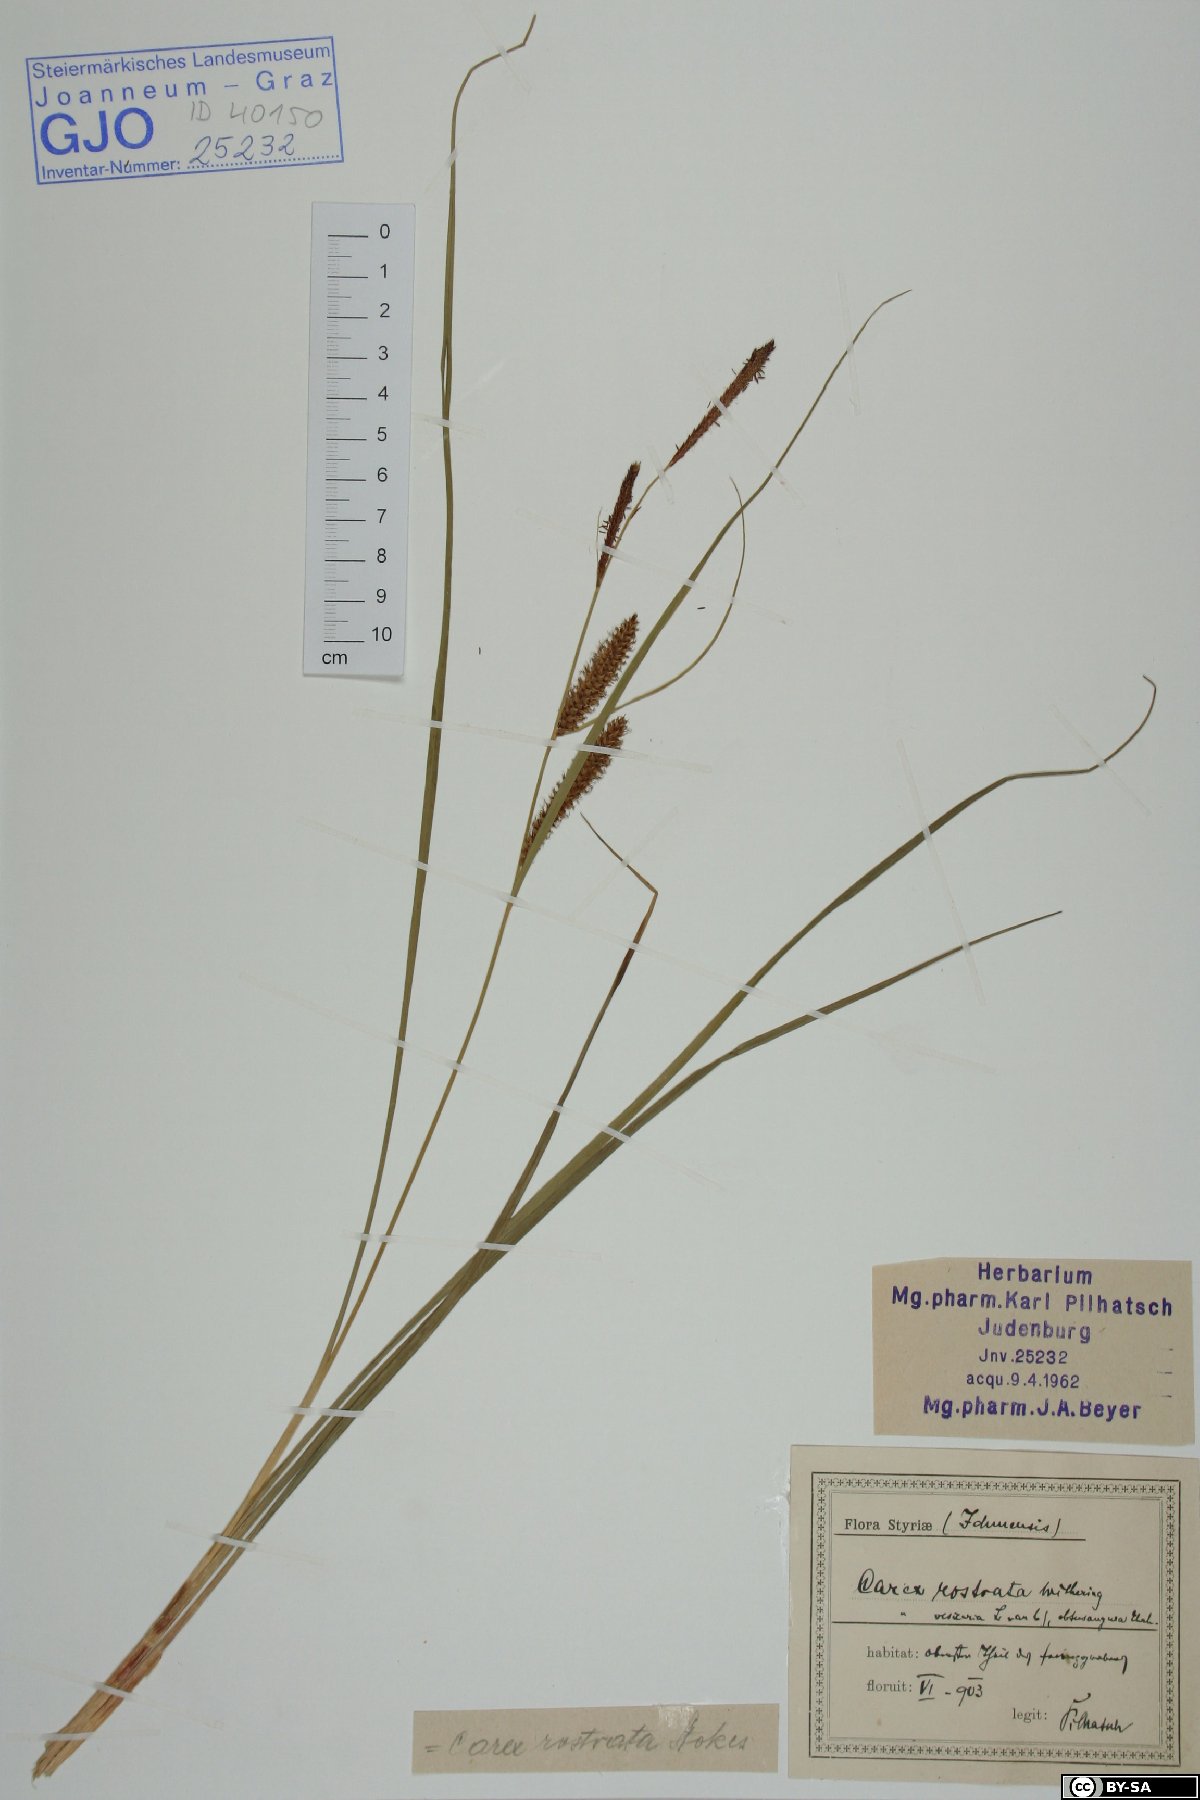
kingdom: Plantae
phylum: Tracheophyta
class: Liliopsida
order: Poales
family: Cyperaceae
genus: Carex
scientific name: Carex rostrata
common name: Bottle sedge
